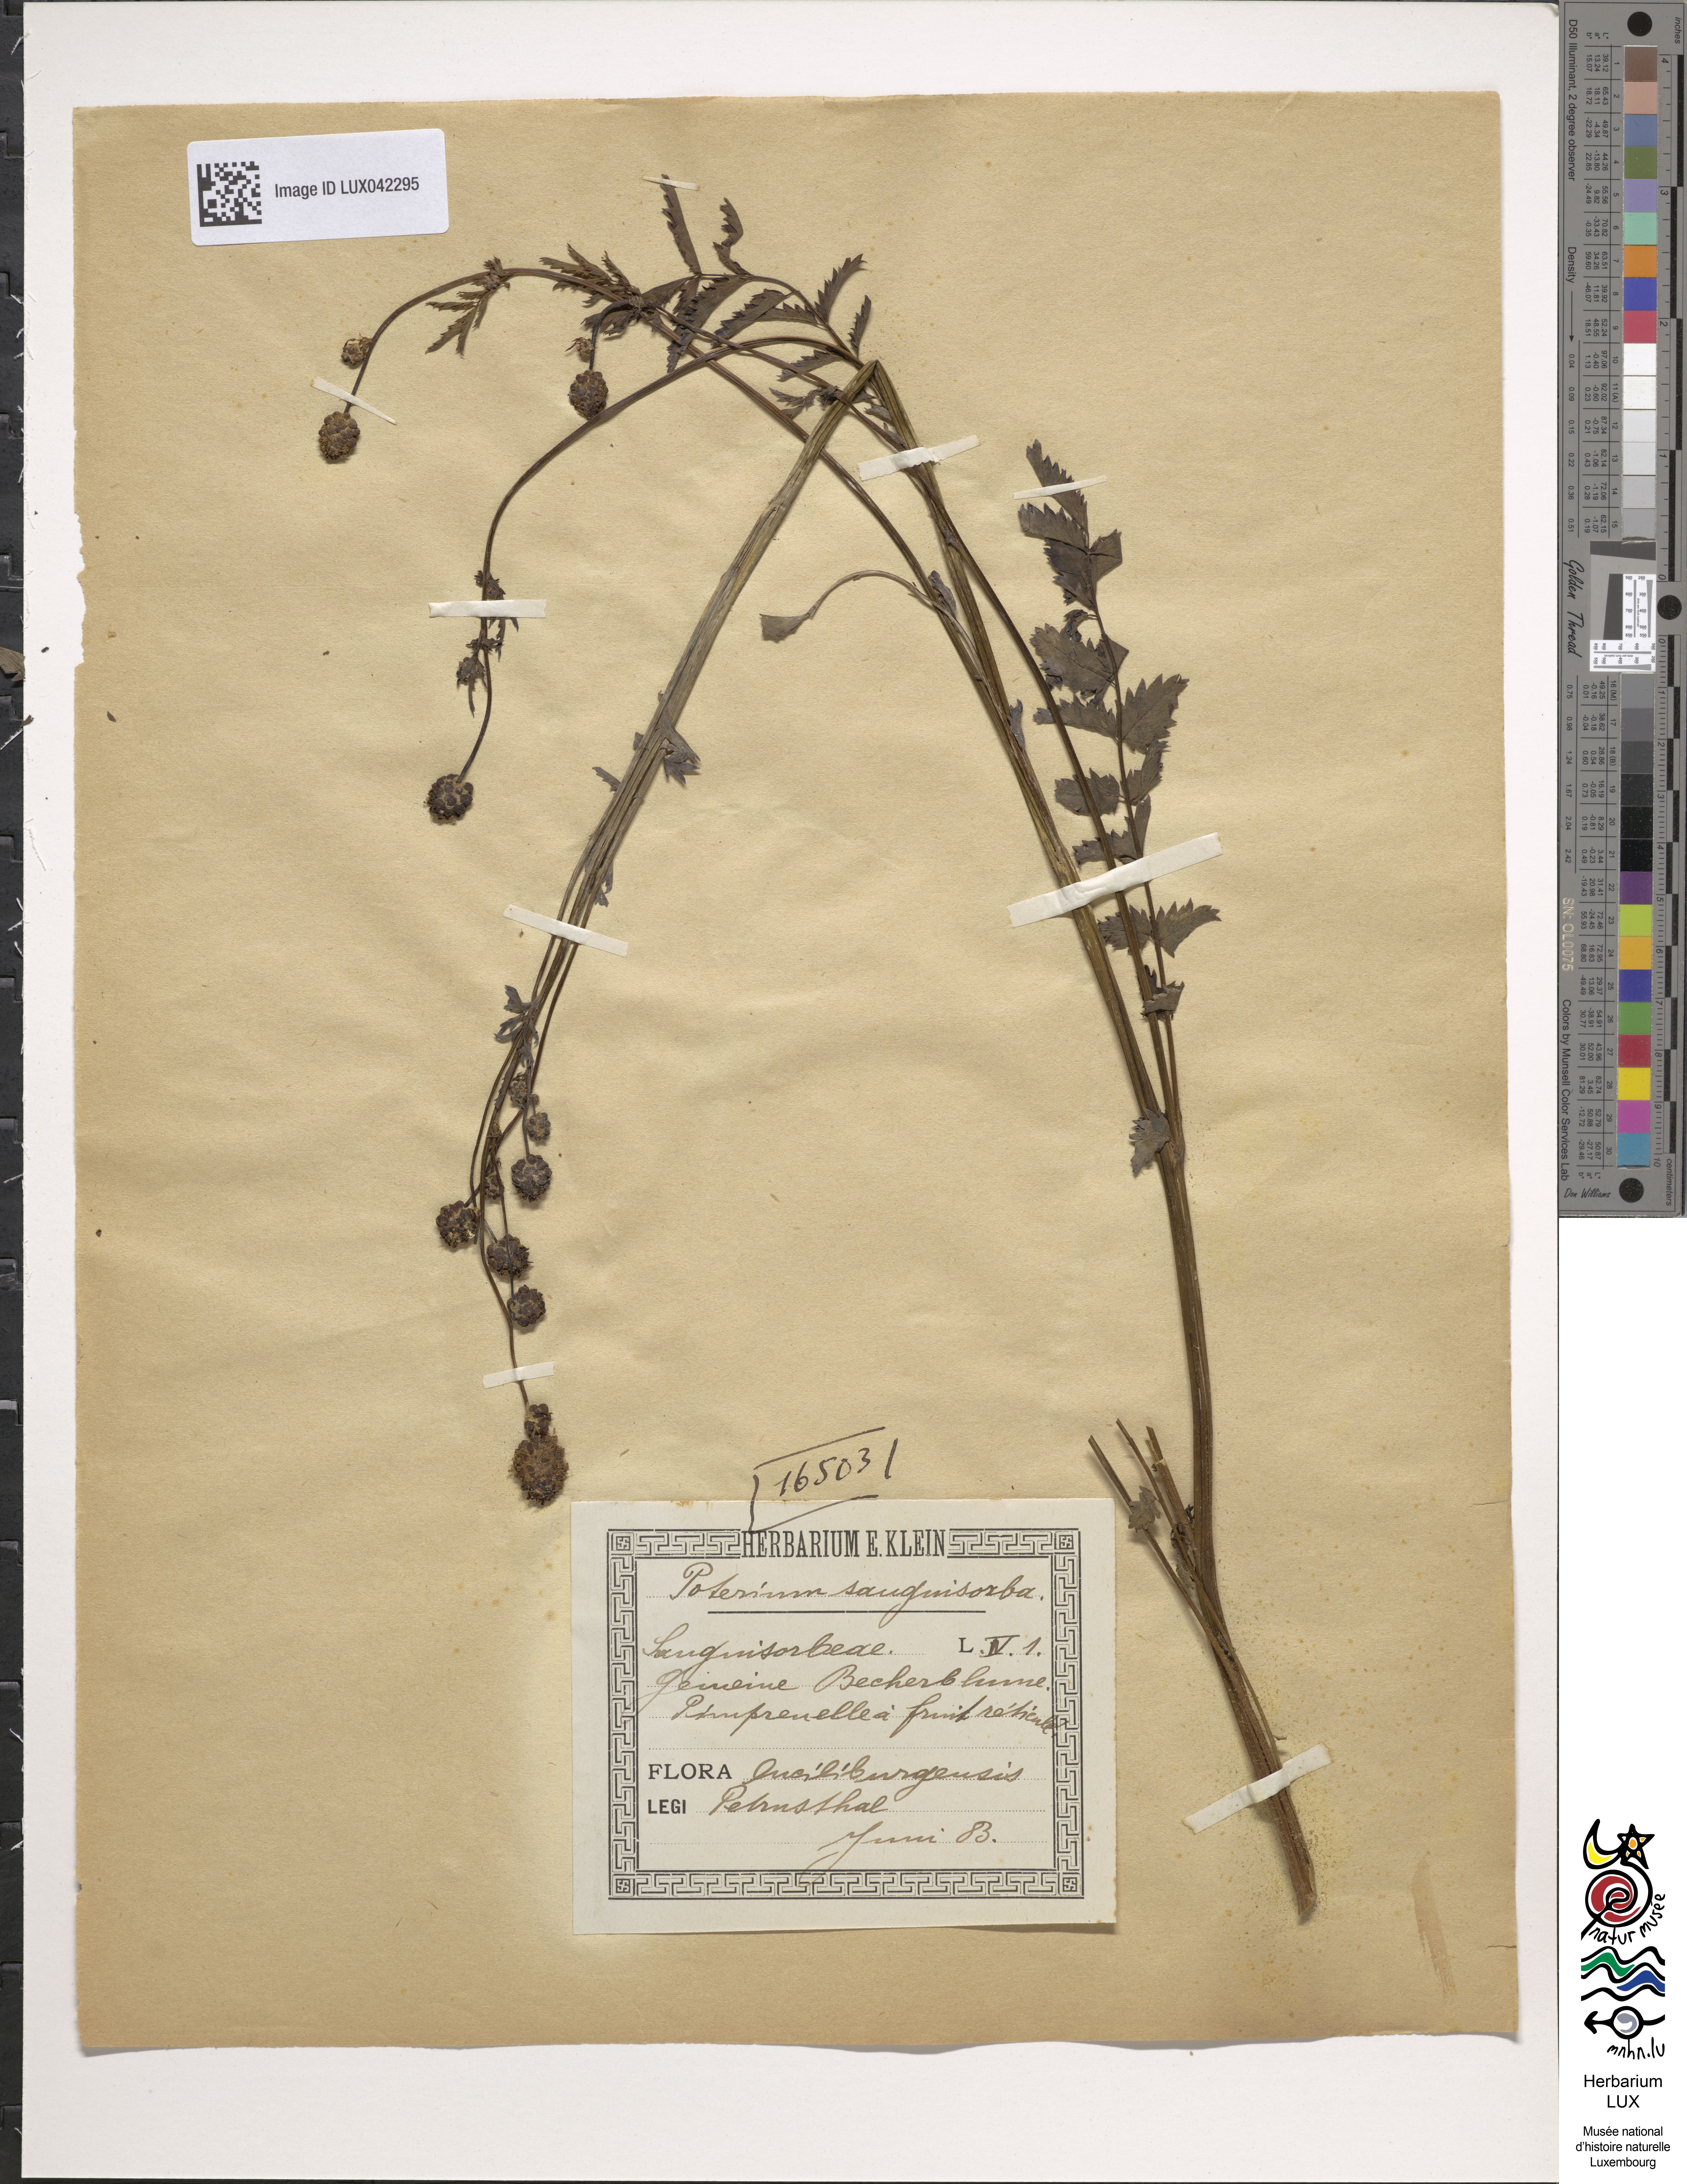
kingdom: Plantae
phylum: Tracheophyta
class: Magnoliopsida
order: Rosales
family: Rosaceae
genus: Poterium
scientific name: Poterium sanguisorba
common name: Salad burnet
